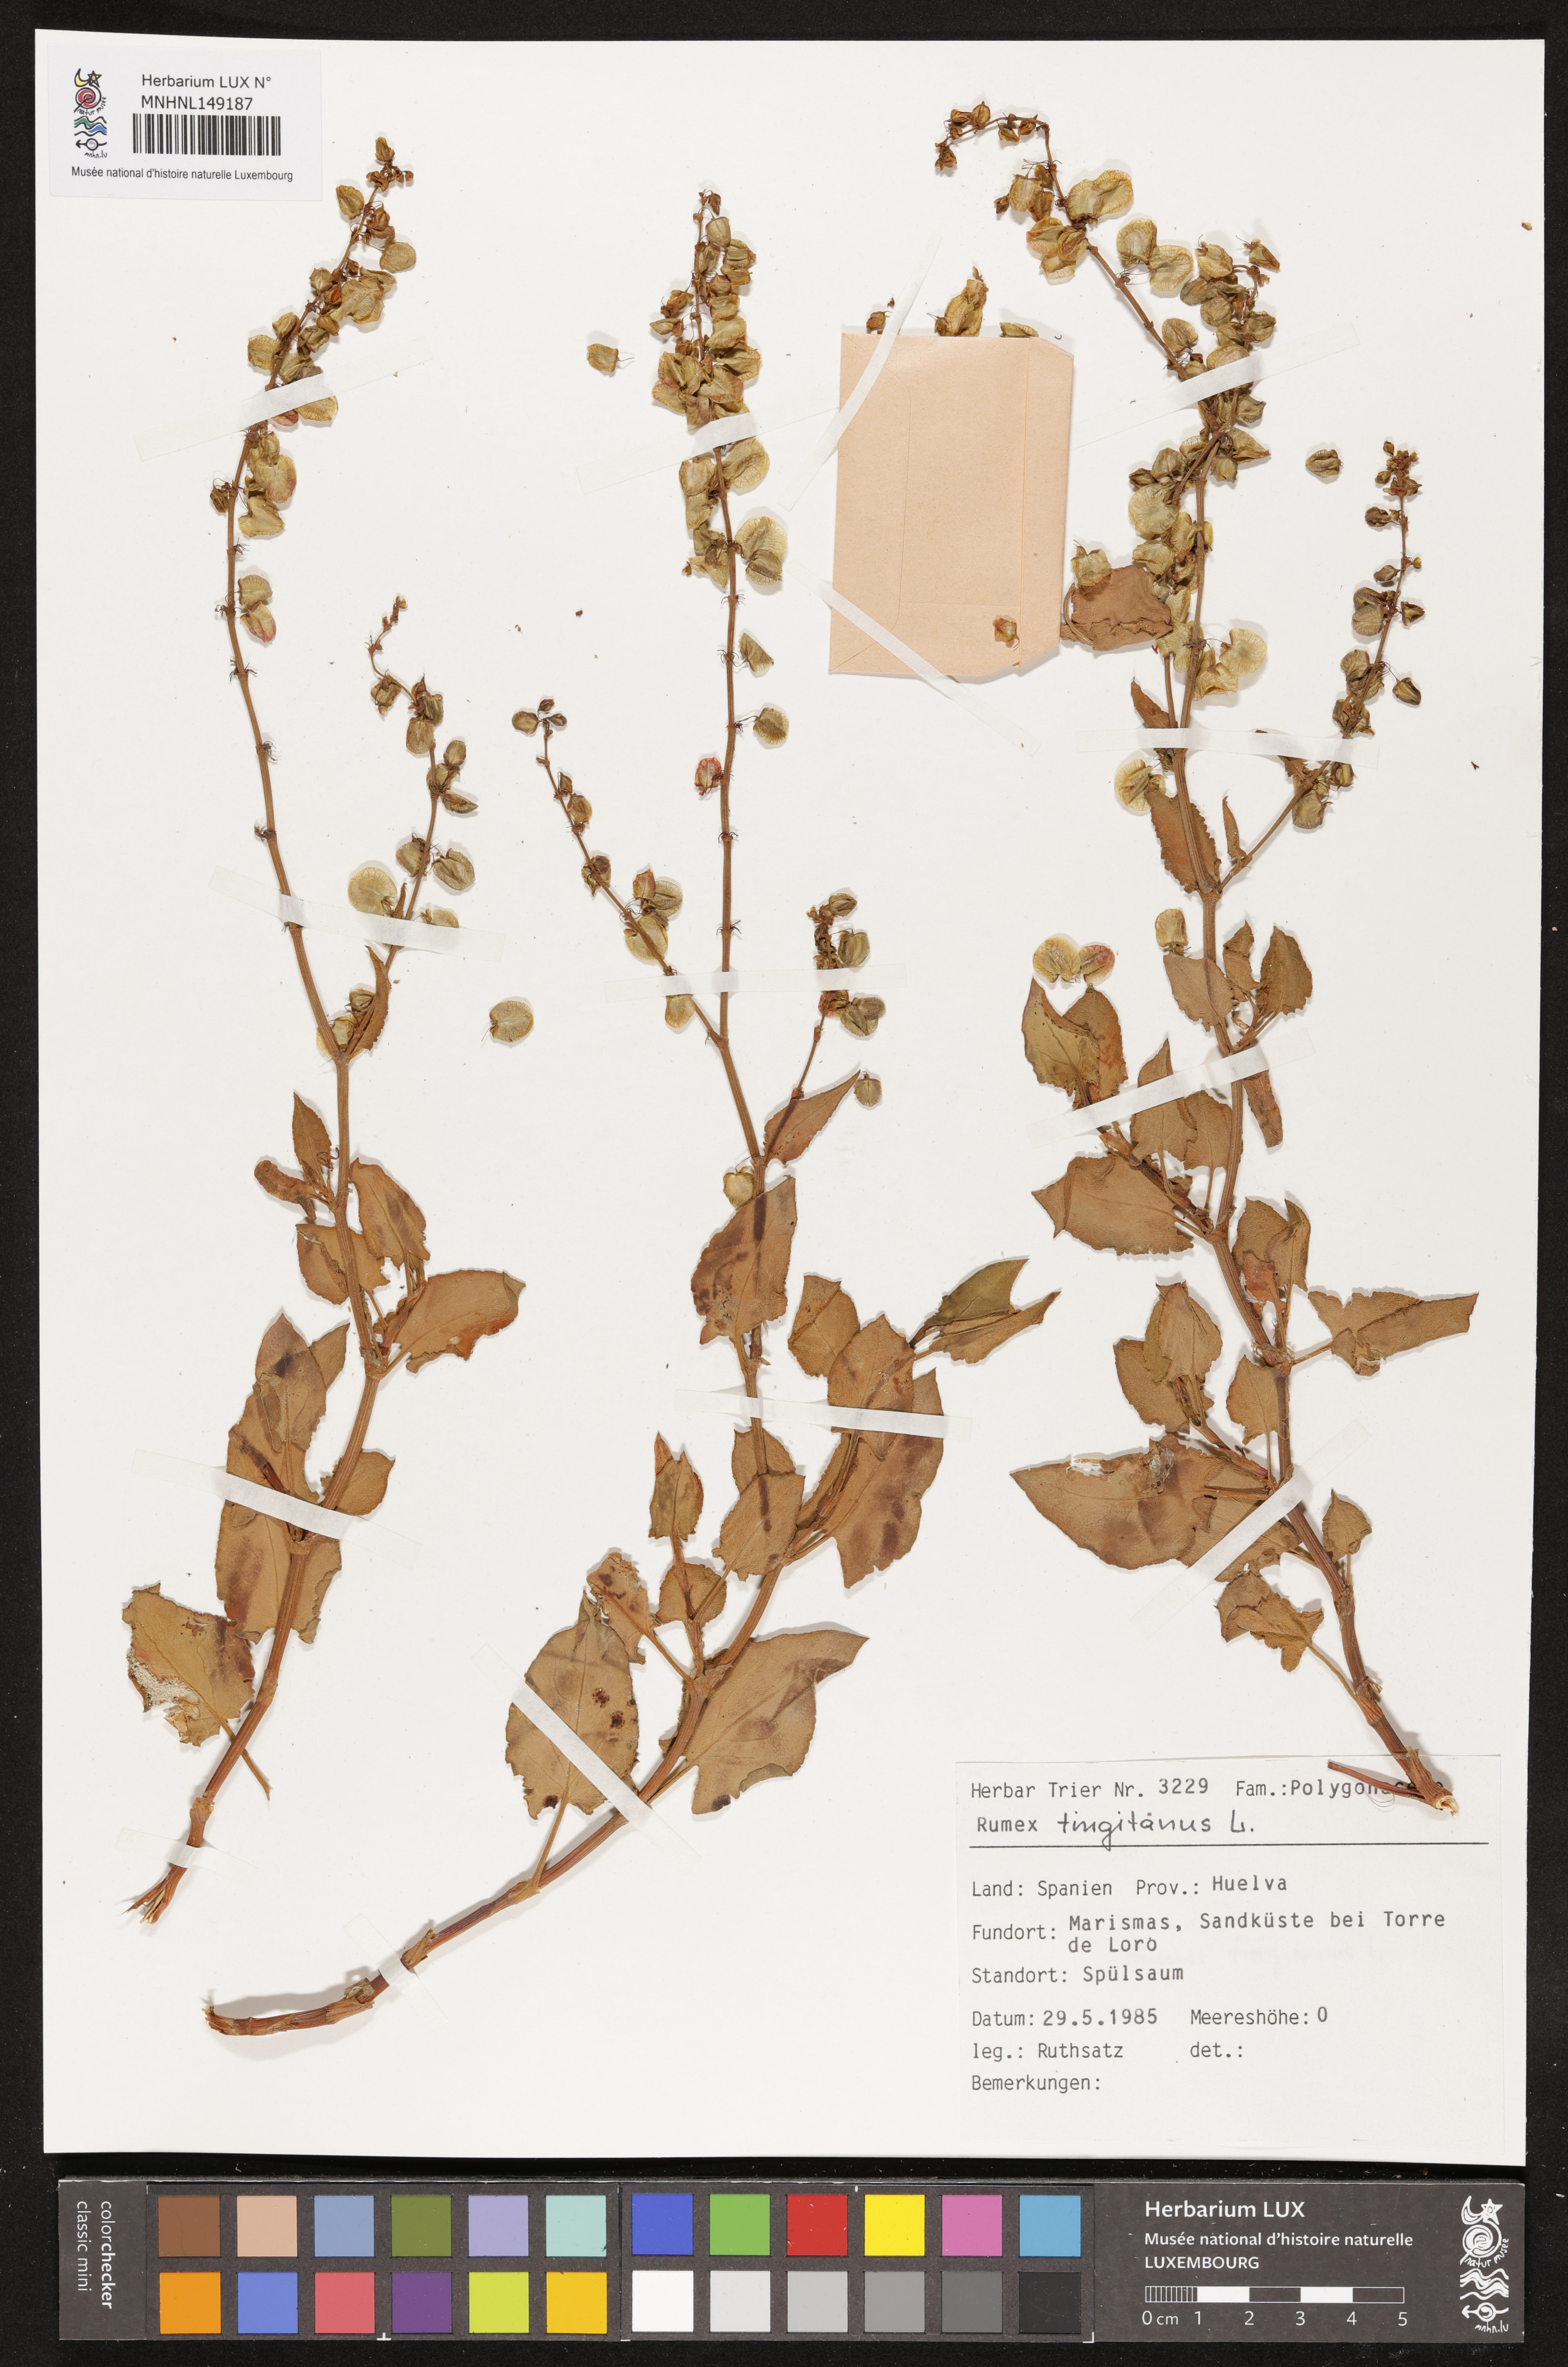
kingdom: Plantae
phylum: Tracheophyta
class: Magnoliopsida
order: Caryophyllales
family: Polygonaceae
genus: Rumex
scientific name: Rumex roseus
